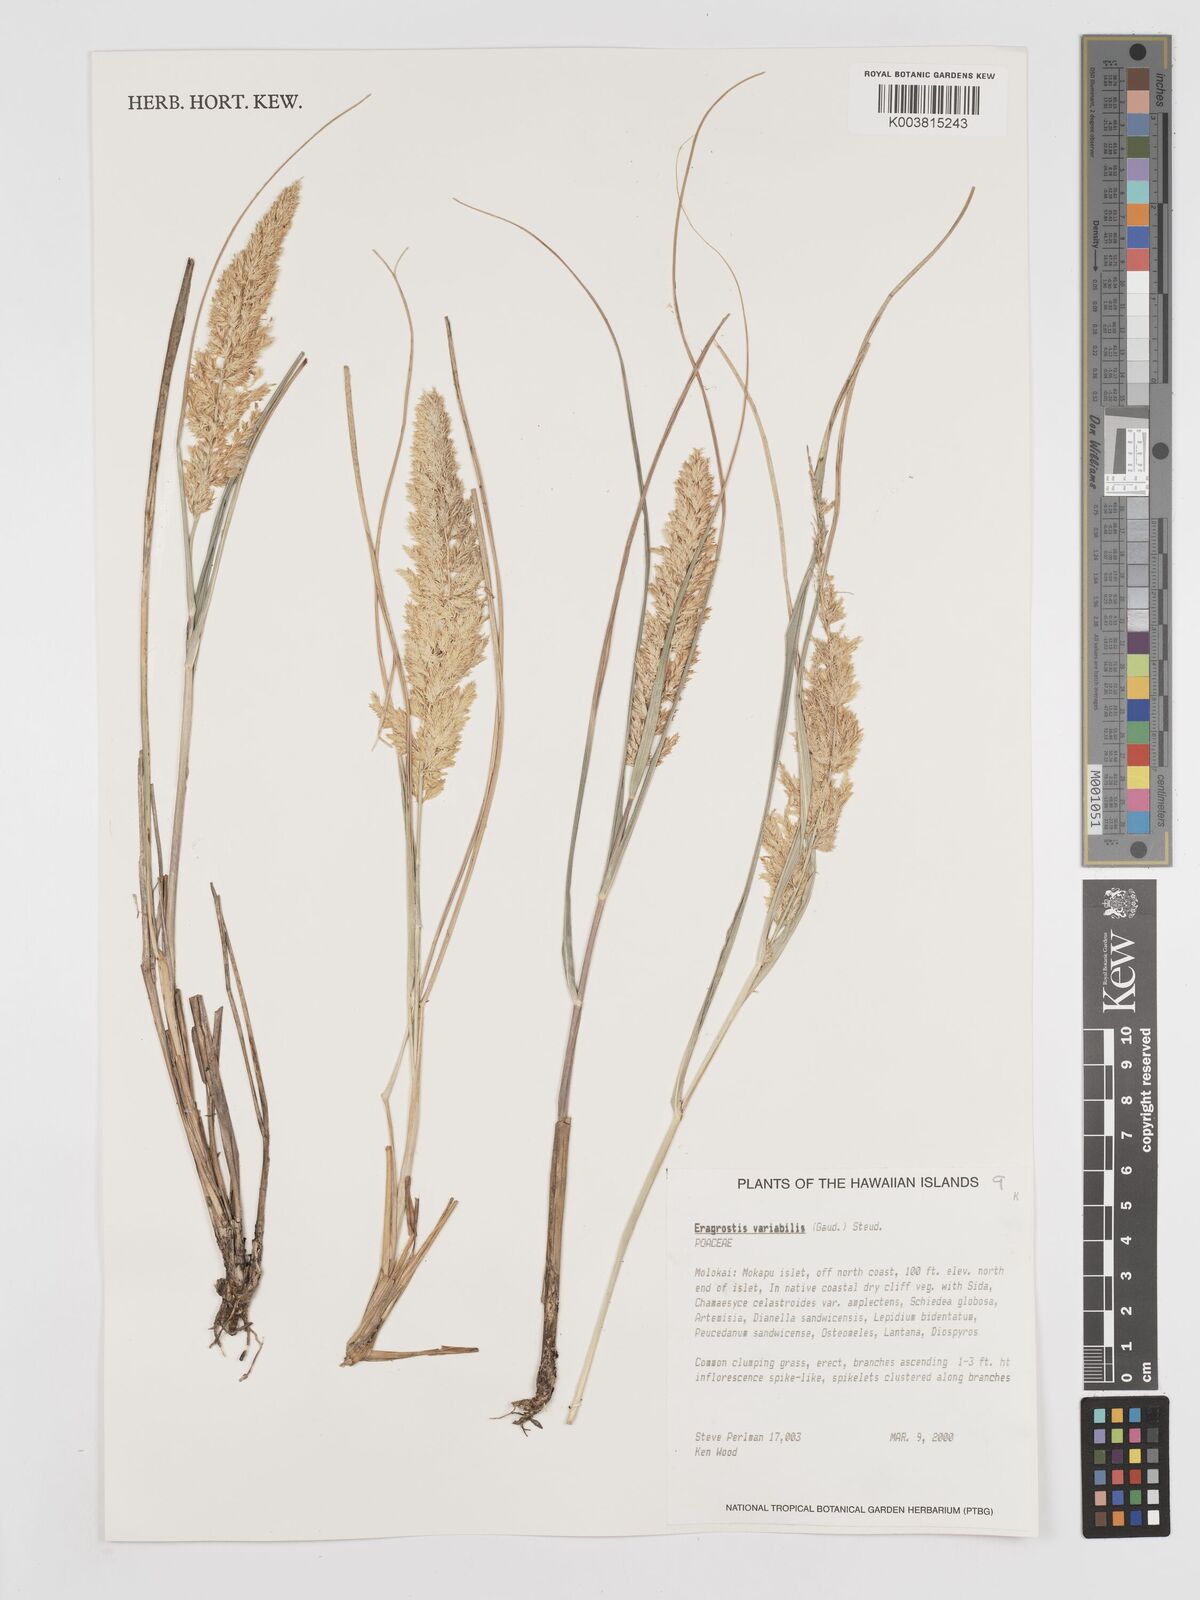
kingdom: Plantae
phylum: Tracheophyta
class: Liliopsida
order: Poales
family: Poaceae
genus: Eragrostis
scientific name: Eragrostis variabilis
